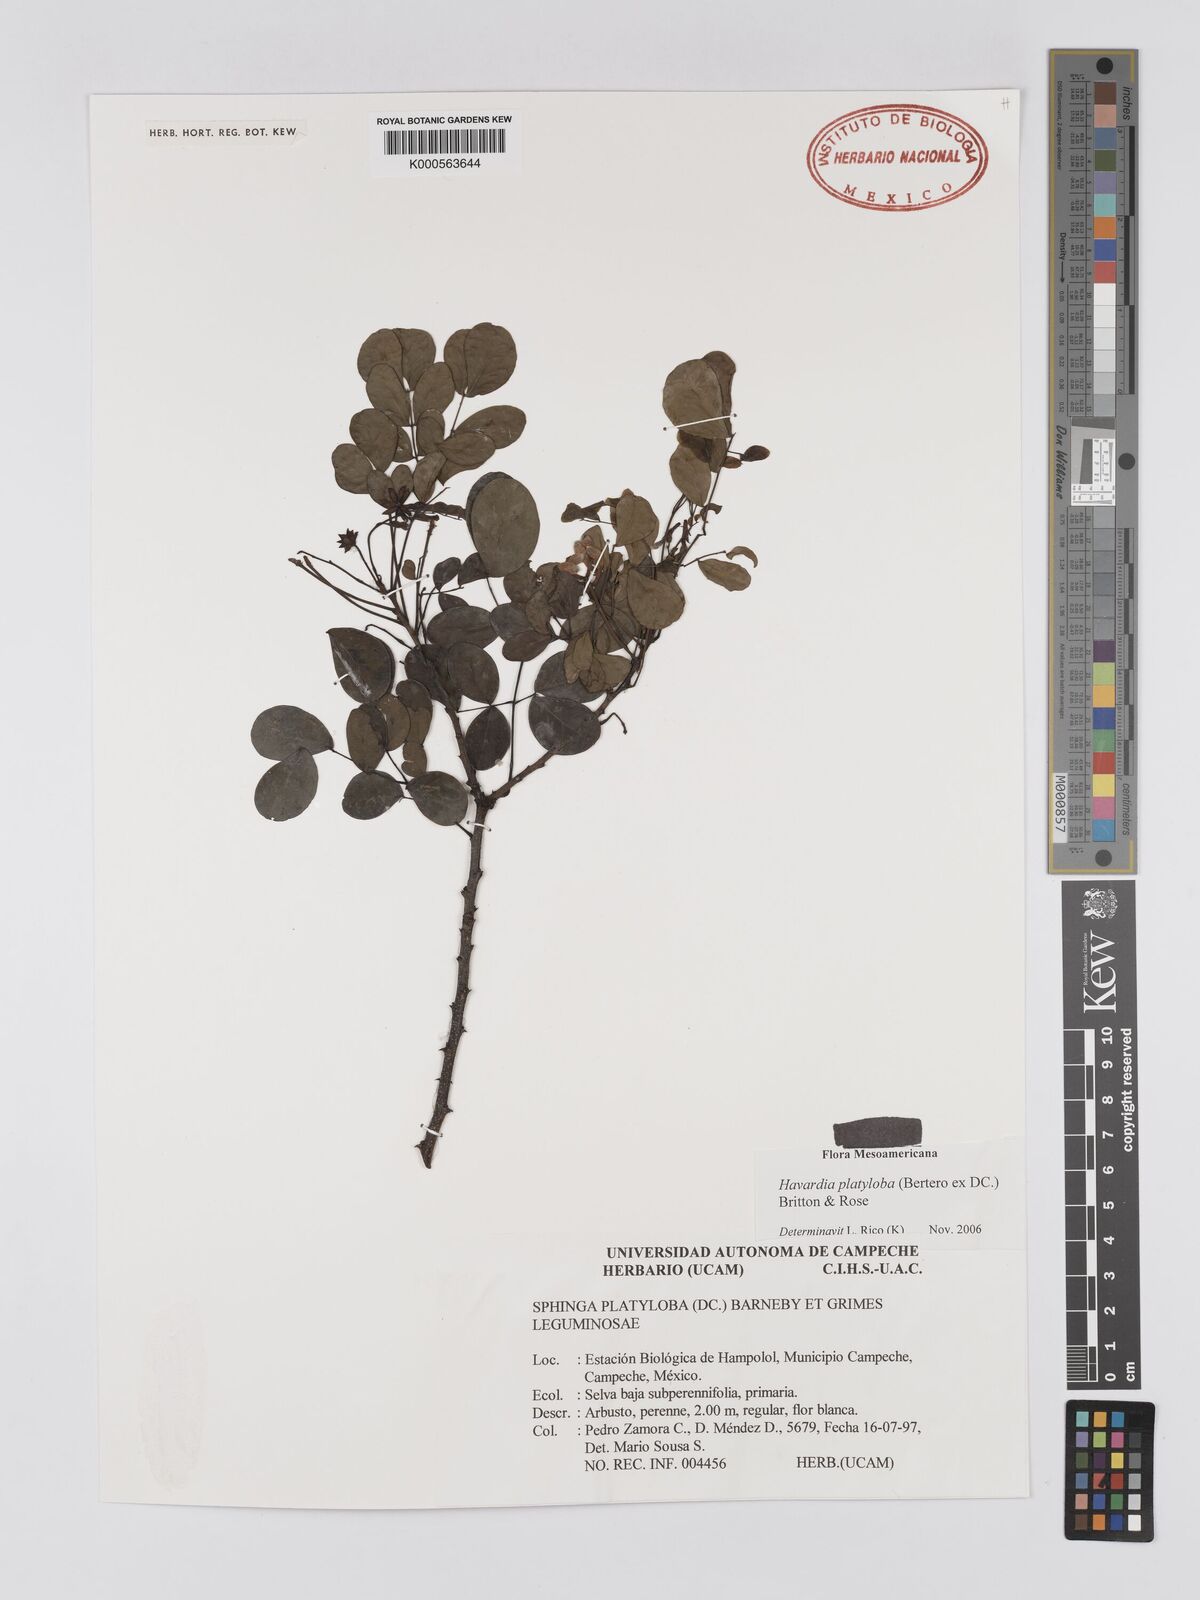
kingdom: Plantae
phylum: Tracheophyta
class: Magnoliopsida
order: Fabales
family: Fabaceae
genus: Havardia
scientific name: Havardia platyloba
